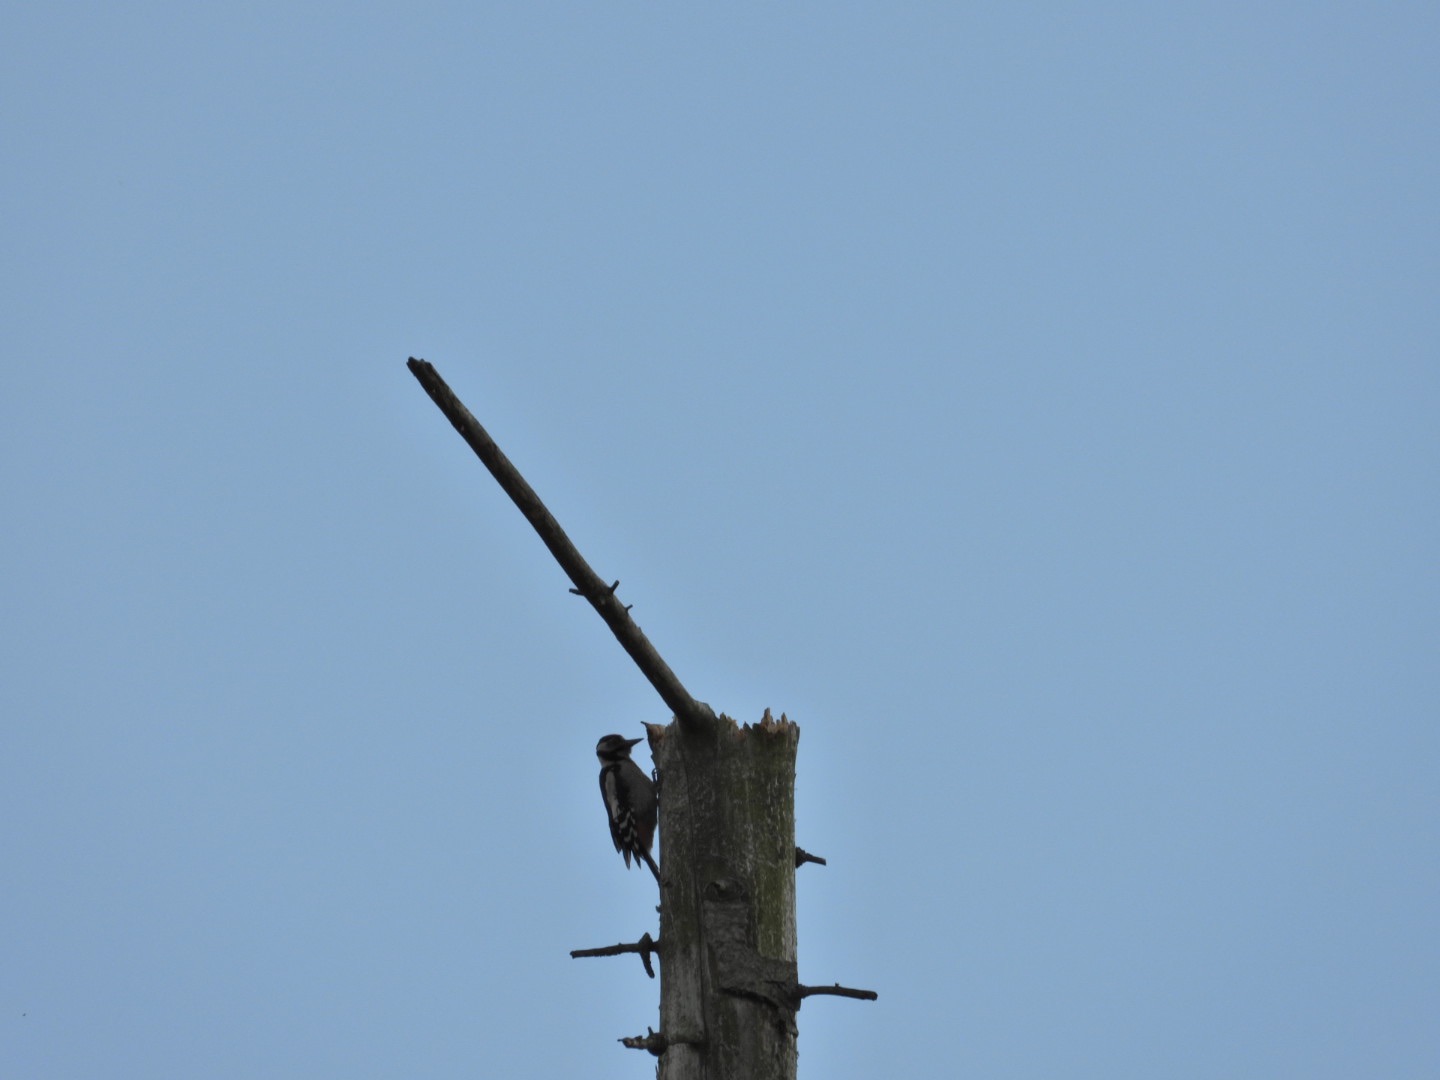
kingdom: Animalia
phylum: Chordata
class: Aves
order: Piciformes
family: Picidae
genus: Dendrocopos
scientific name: Dendrocopos major
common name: Stor flagspætte
